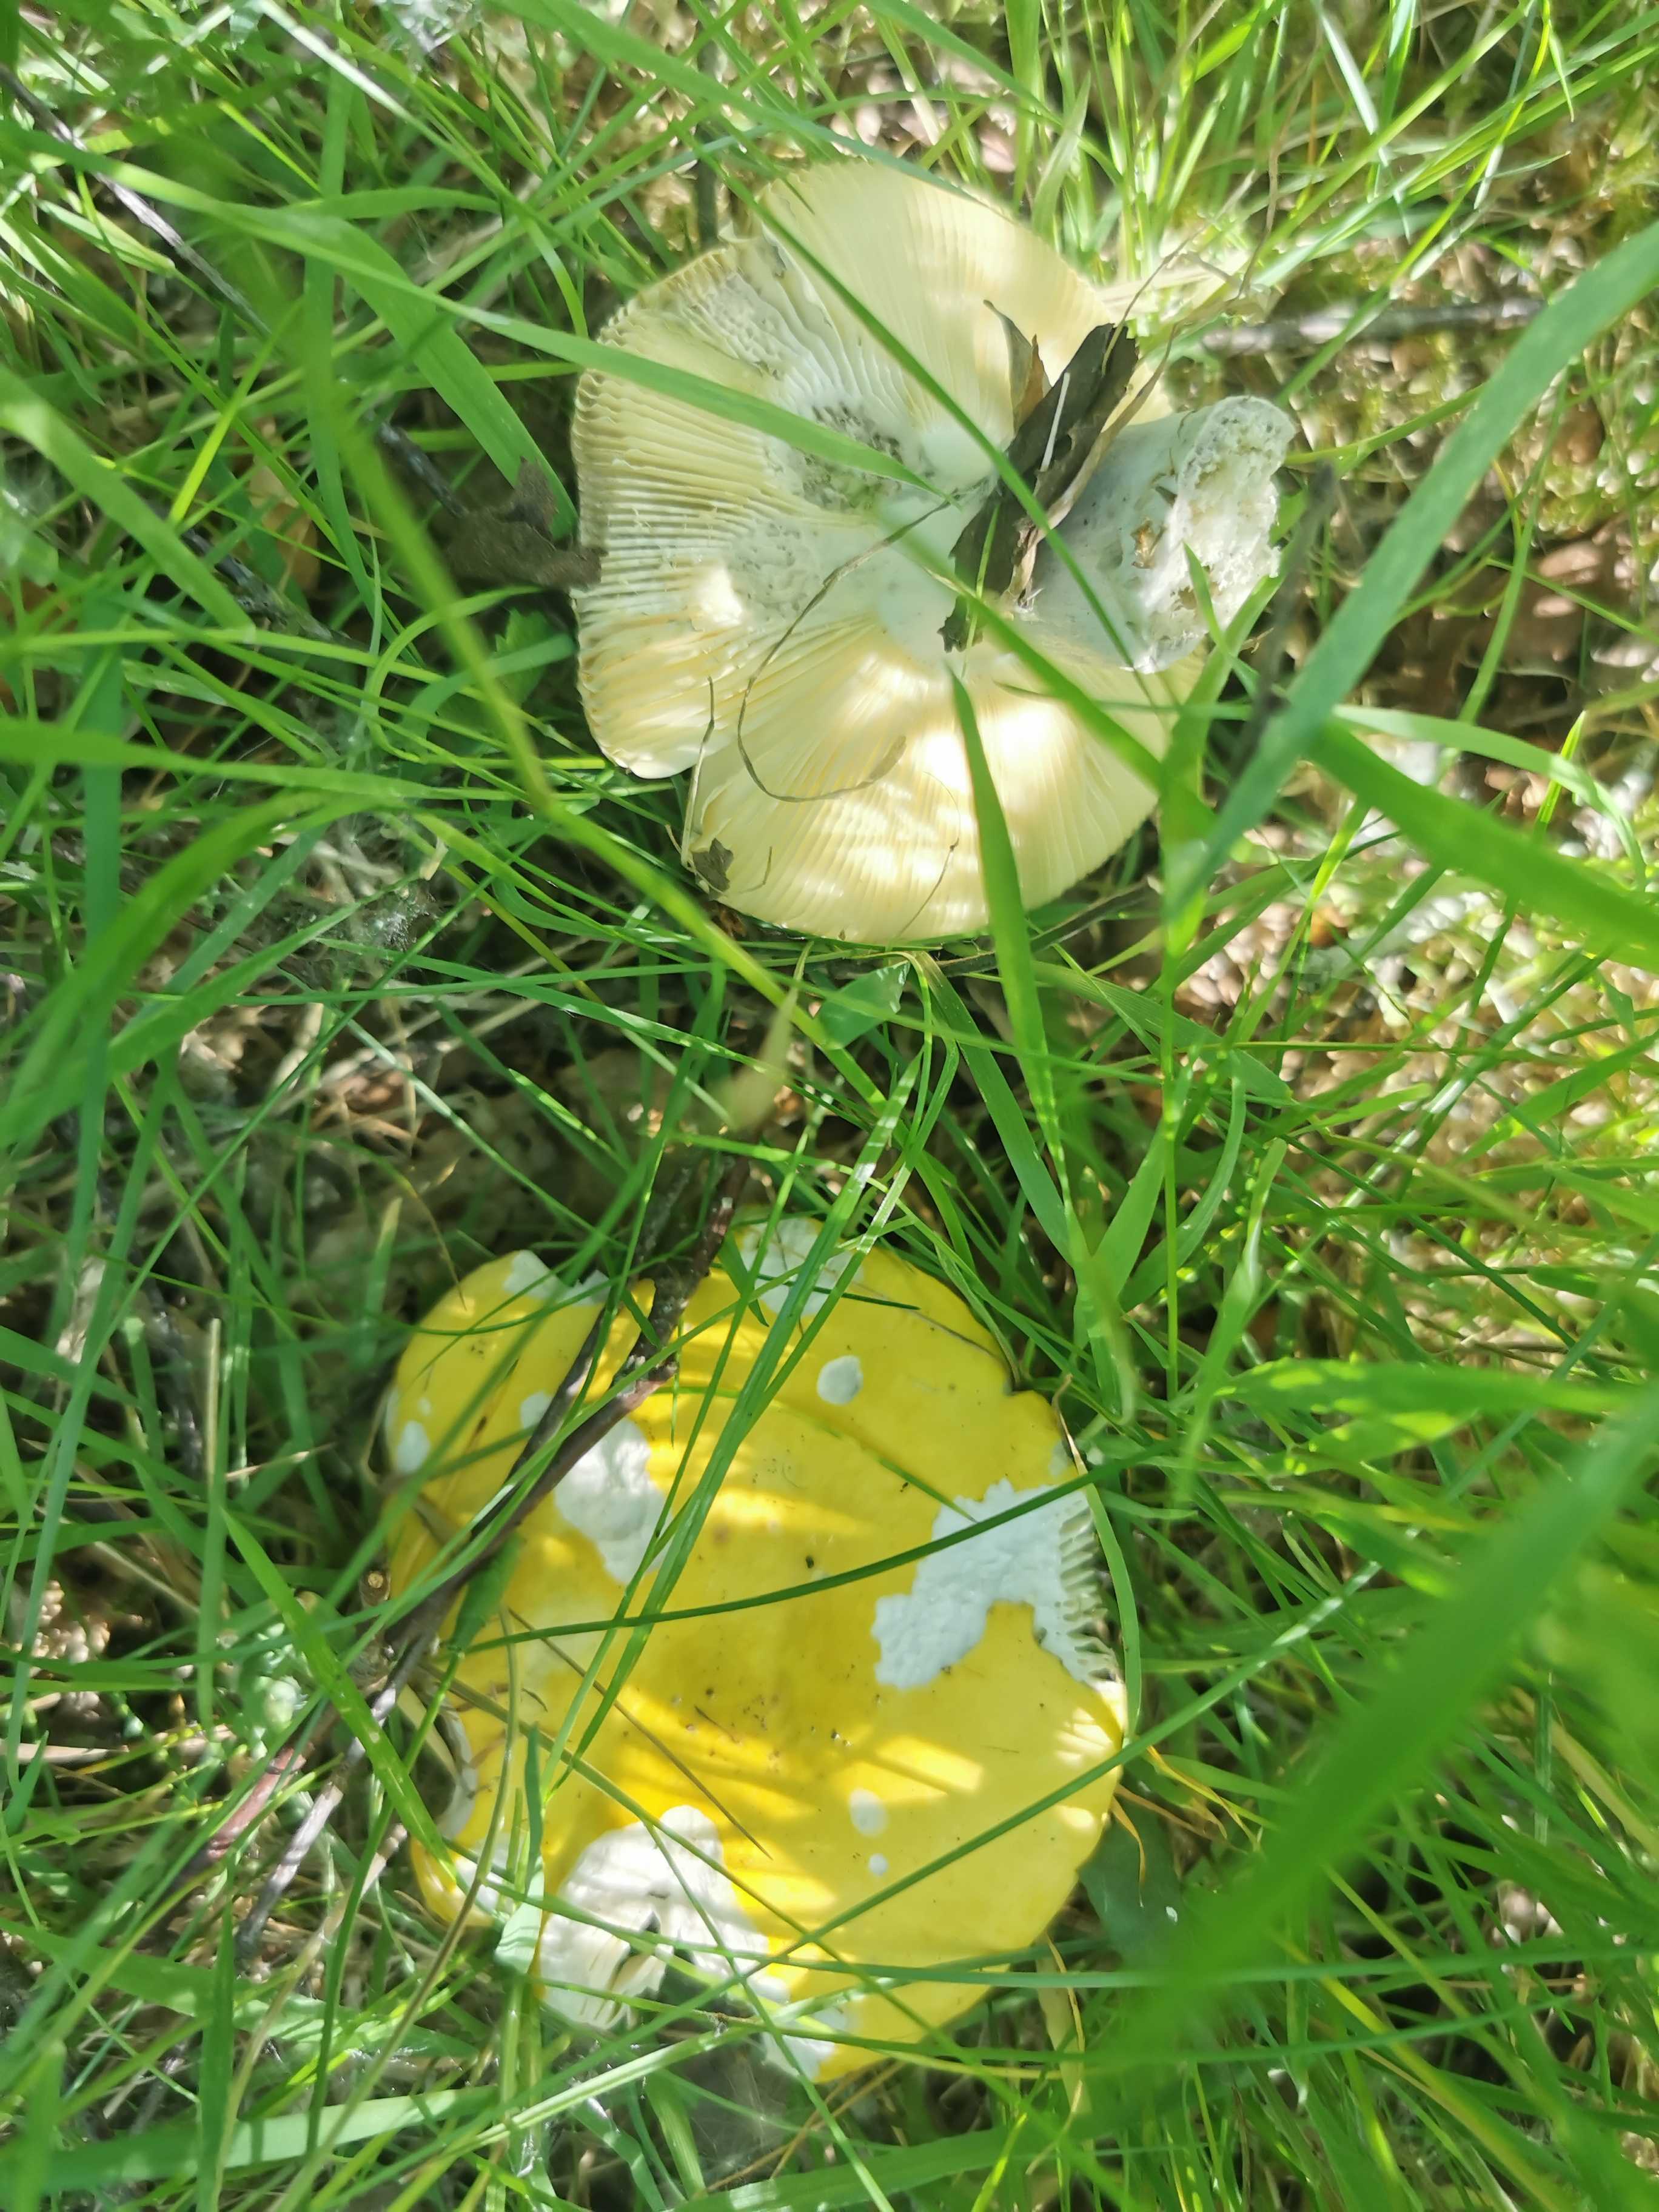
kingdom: Fungi
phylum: Basidiomycota
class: Agaricomycetes
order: Russulales
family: Russulaceae
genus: Russula
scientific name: Russula claroflava
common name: birke-skørhat
